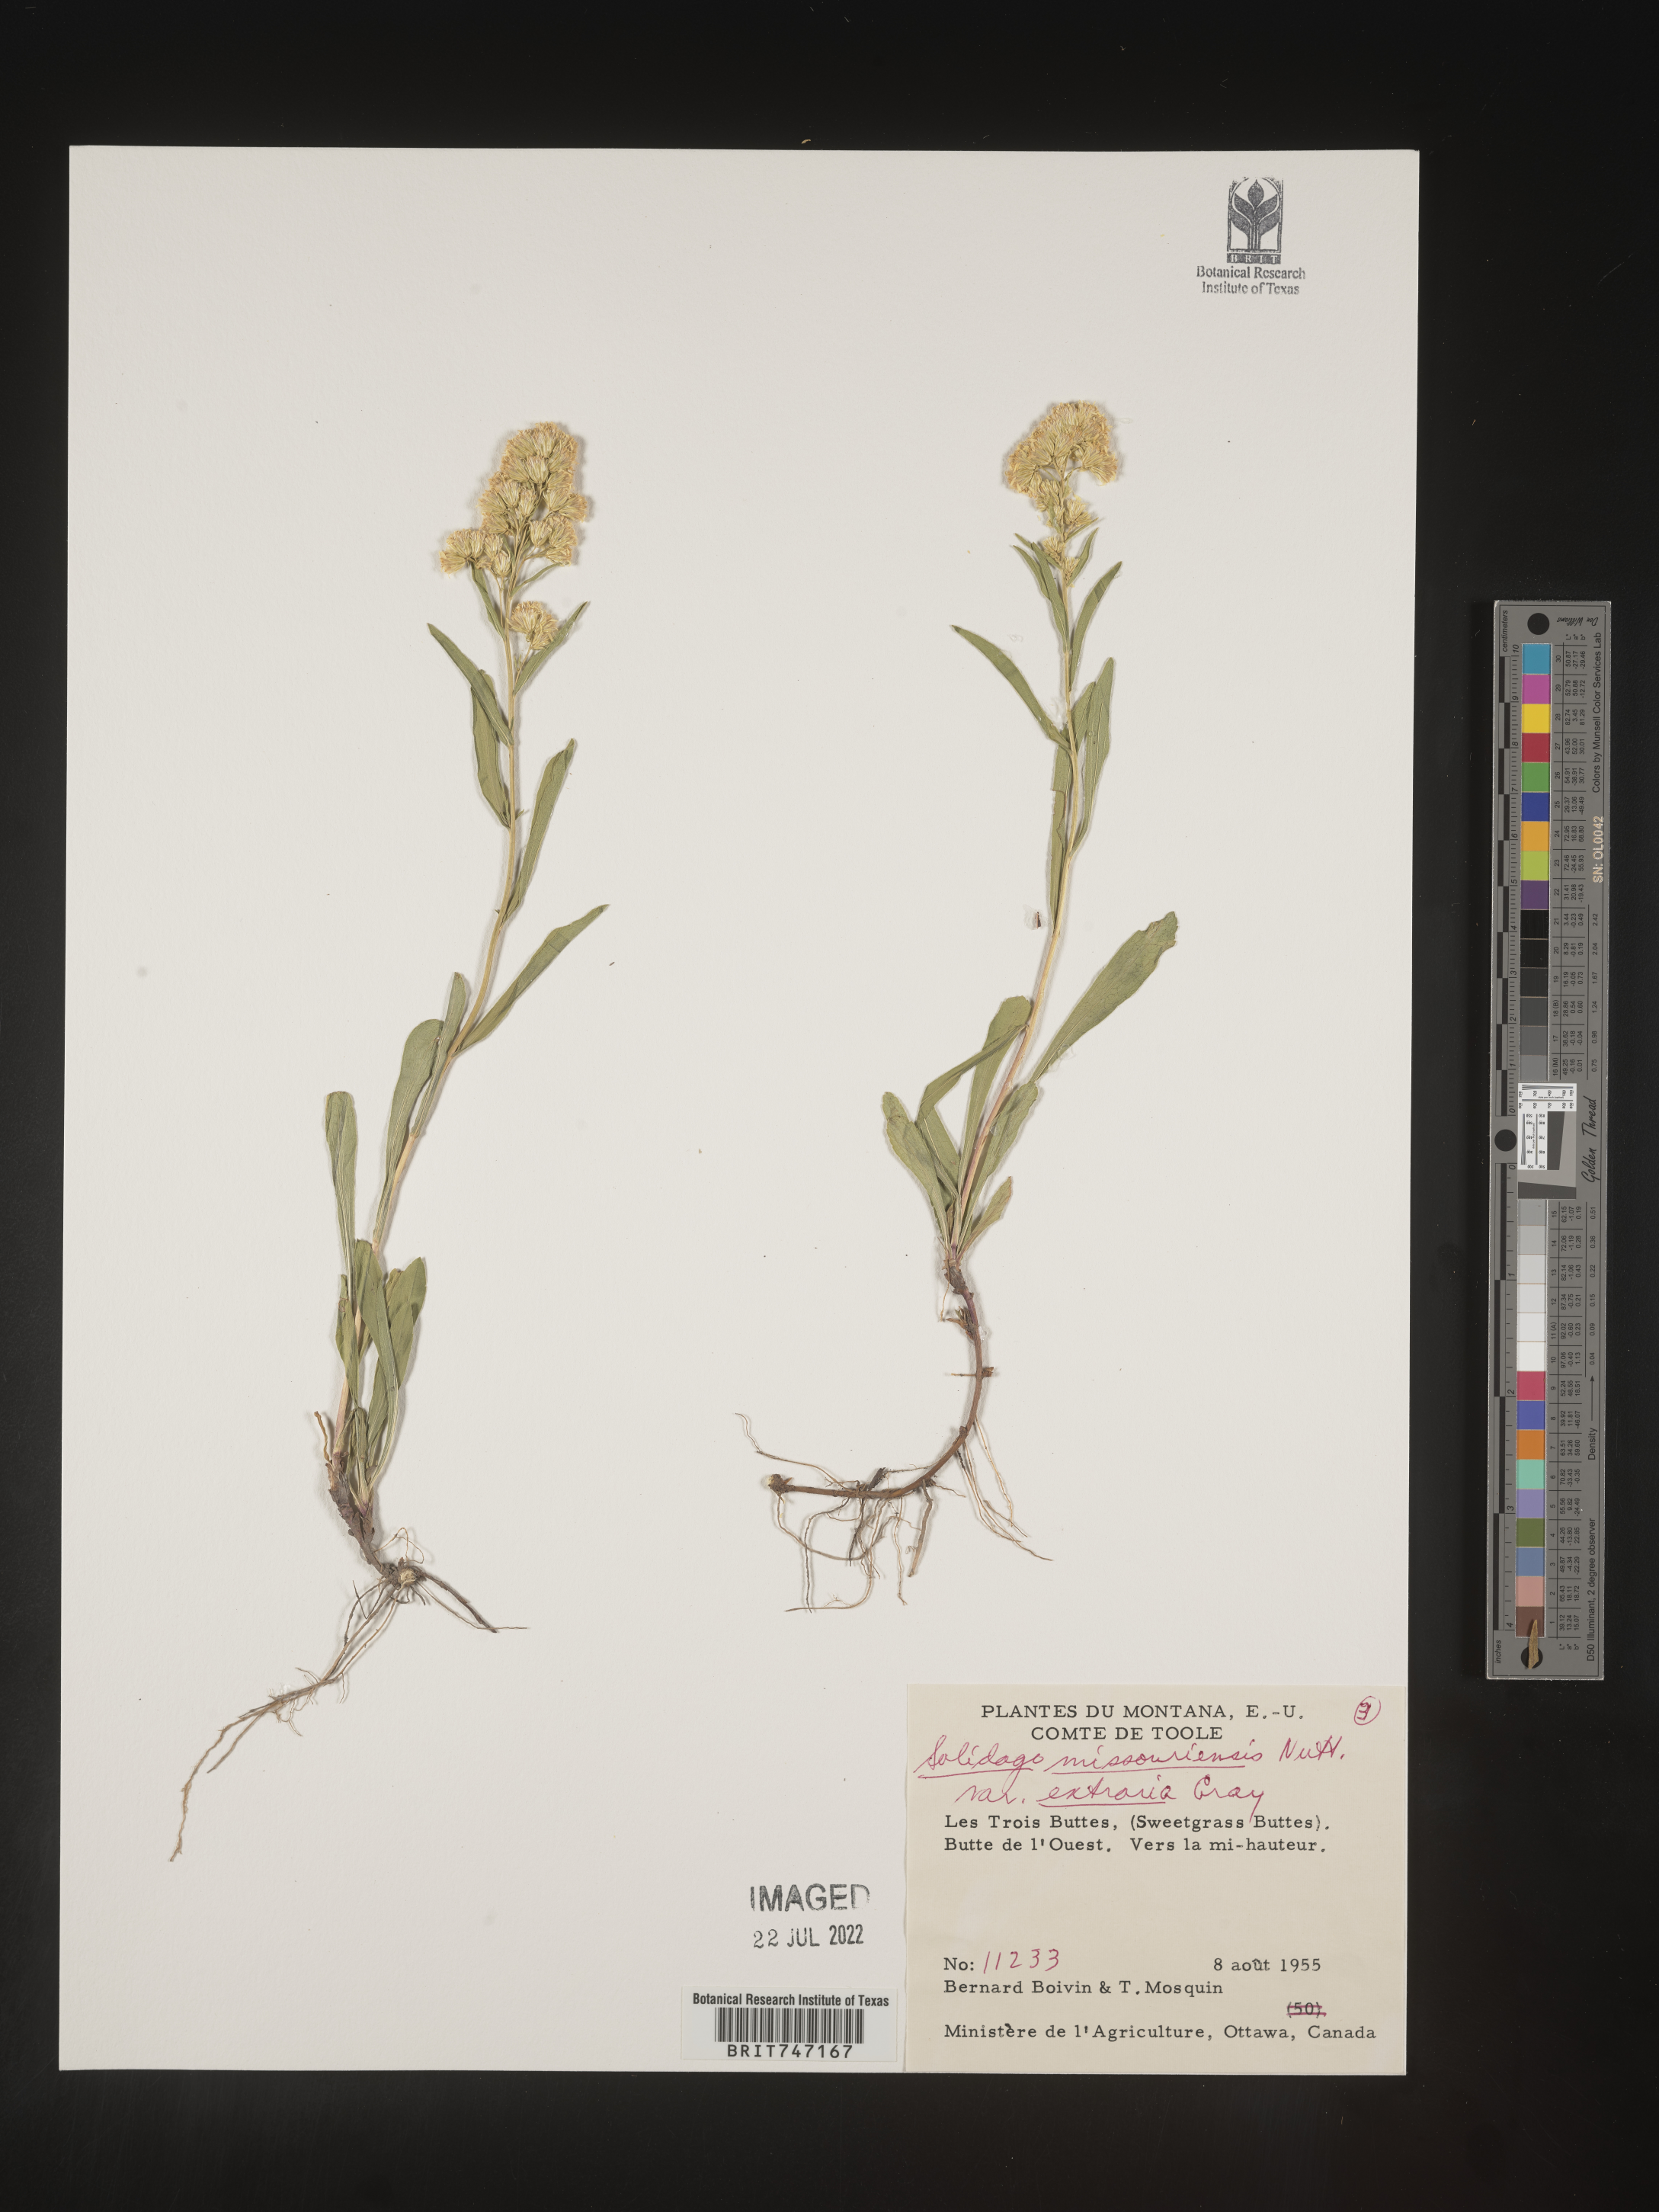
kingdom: Plantae
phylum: Tracheophyta
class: Magnoliopsida
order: Asterales
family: Asteraceae
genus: Solidago
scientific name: Solidago missouriensis
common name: Prairie goldenrod
